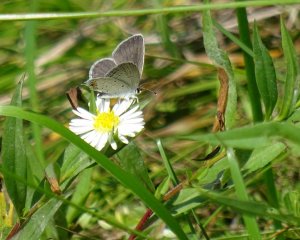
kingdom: Animalia
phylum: Arthropoda
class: Insecta
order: Lepidoptera
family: Lycaenidae
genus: Elkalyce
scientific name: Elkalyce comyntas
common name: Eastern Tailed-Blue
